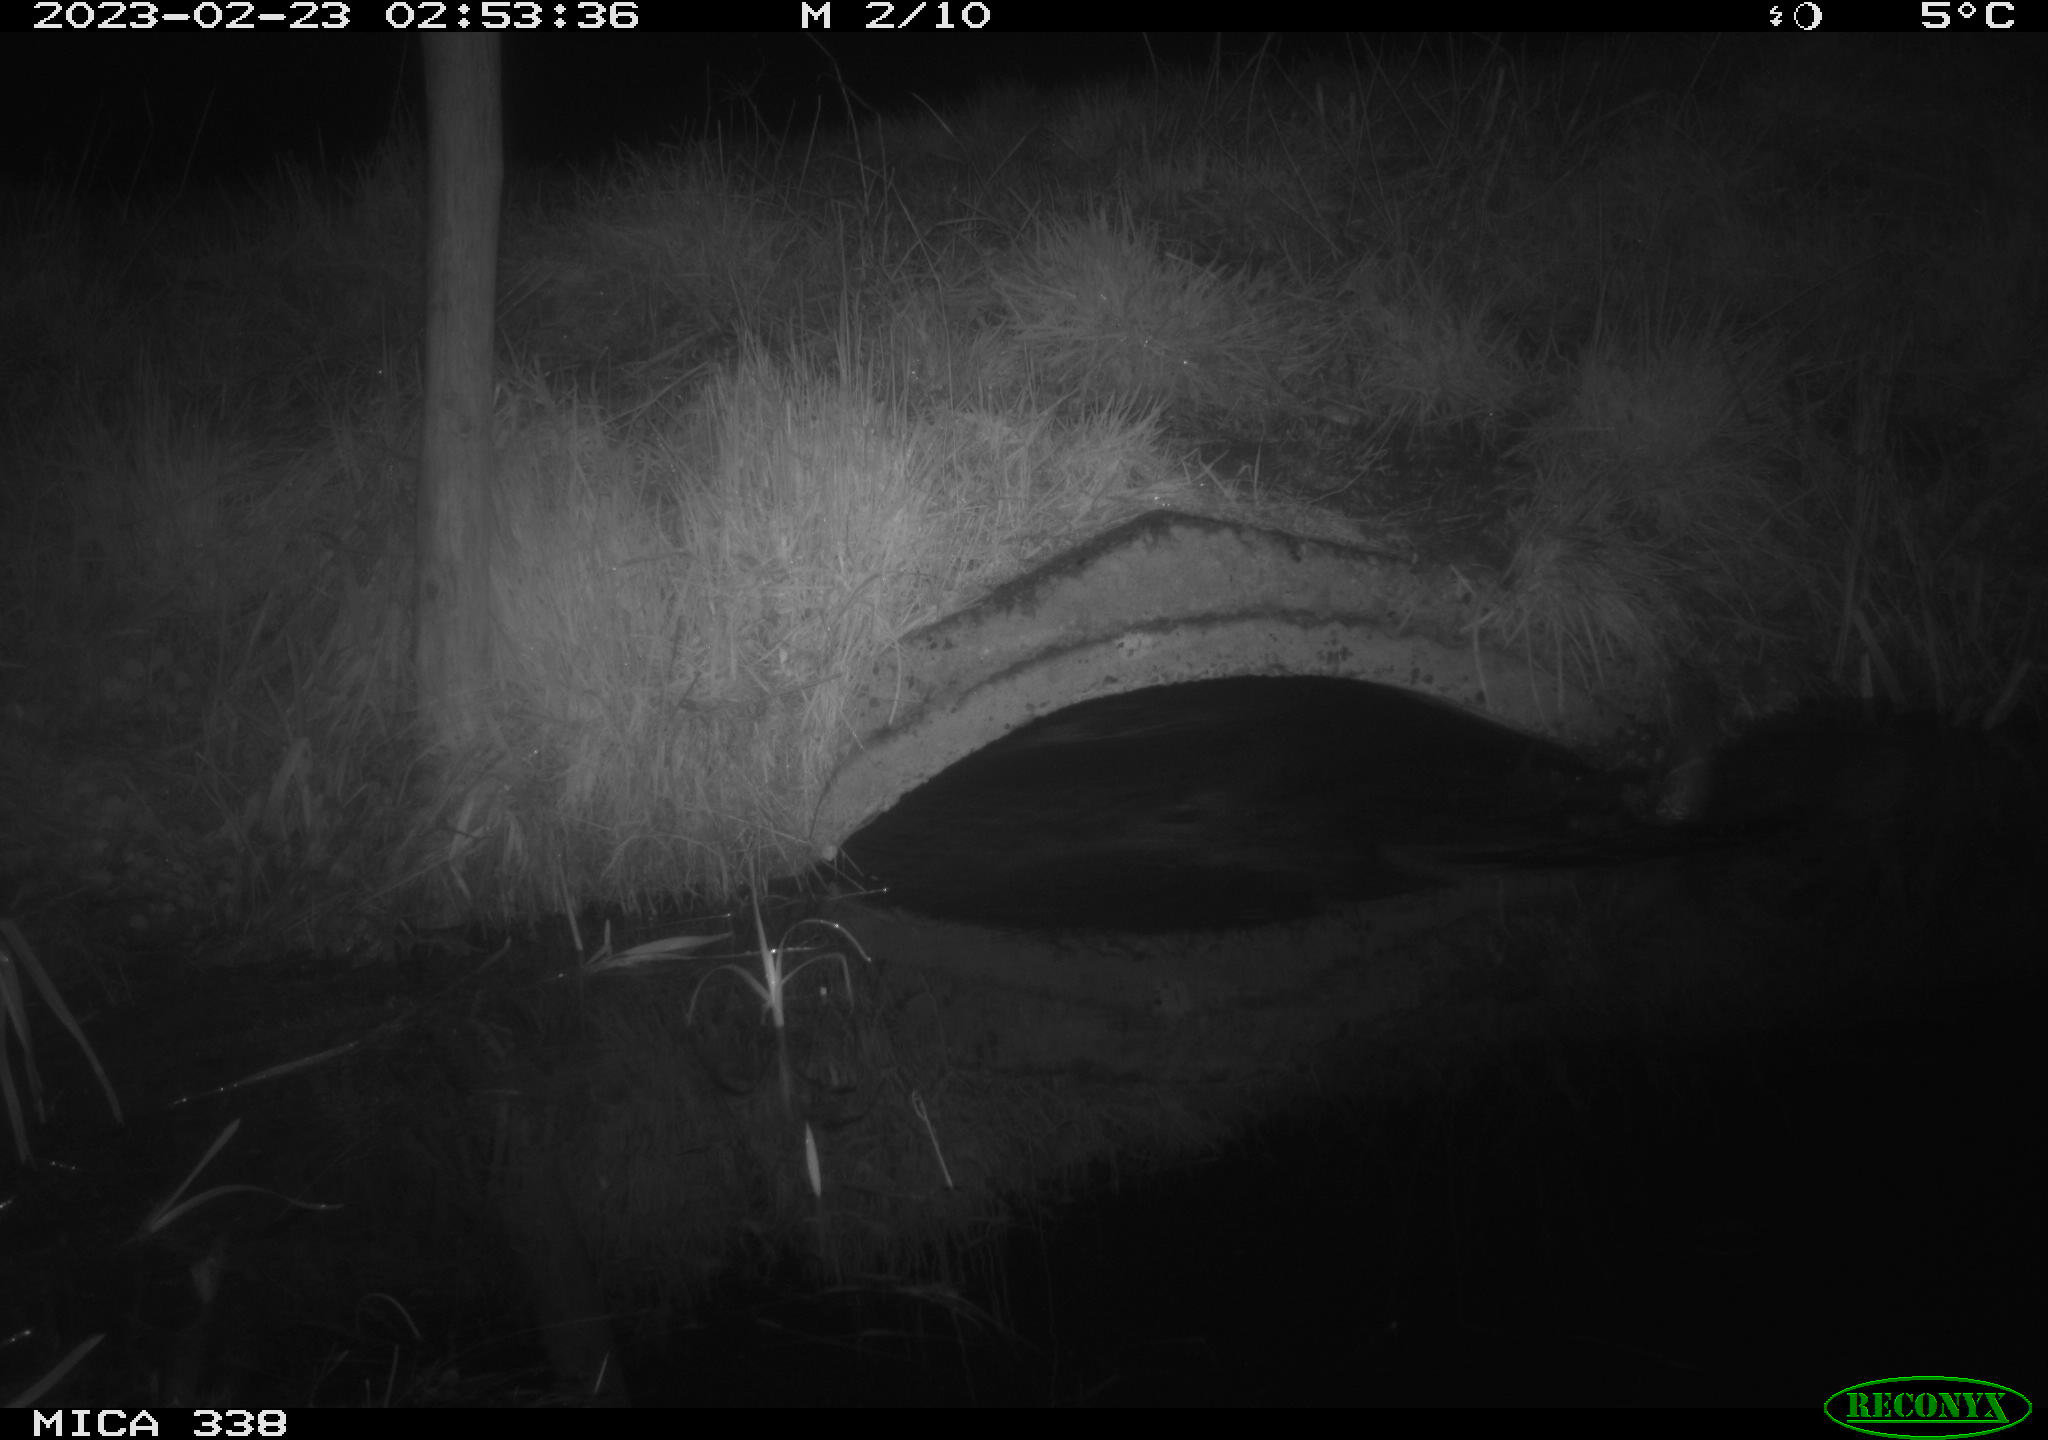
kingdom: Animalia
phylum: Chordata
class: Mammalia
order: Carnivora
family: Mustelidae
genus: Lutra
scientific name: Lutra lutra
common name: European otter
